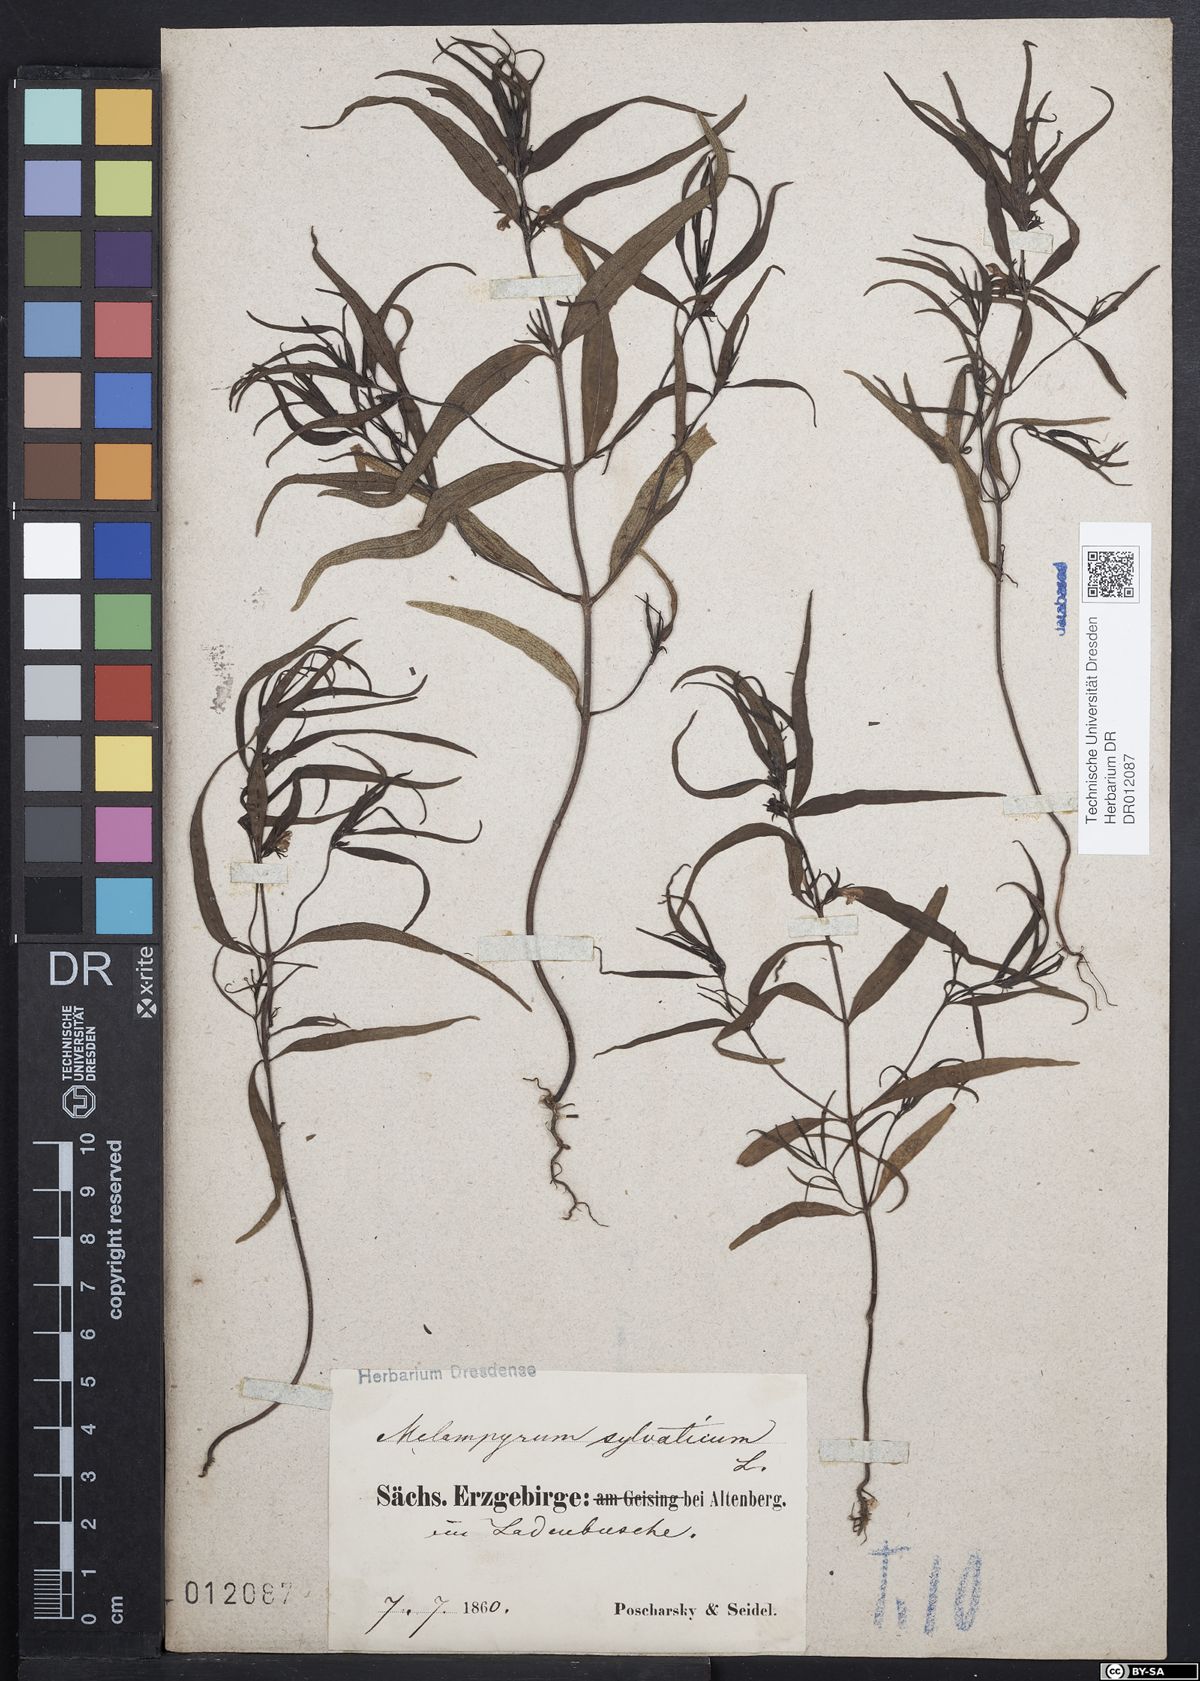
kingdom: Plantae
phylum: Tracheophyta
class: Magnoliopsida
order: Lamiales
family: Orobanchaceae
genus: Melampyrum
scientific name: Melampyrum sylvaticum
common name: Small cow-wheat
